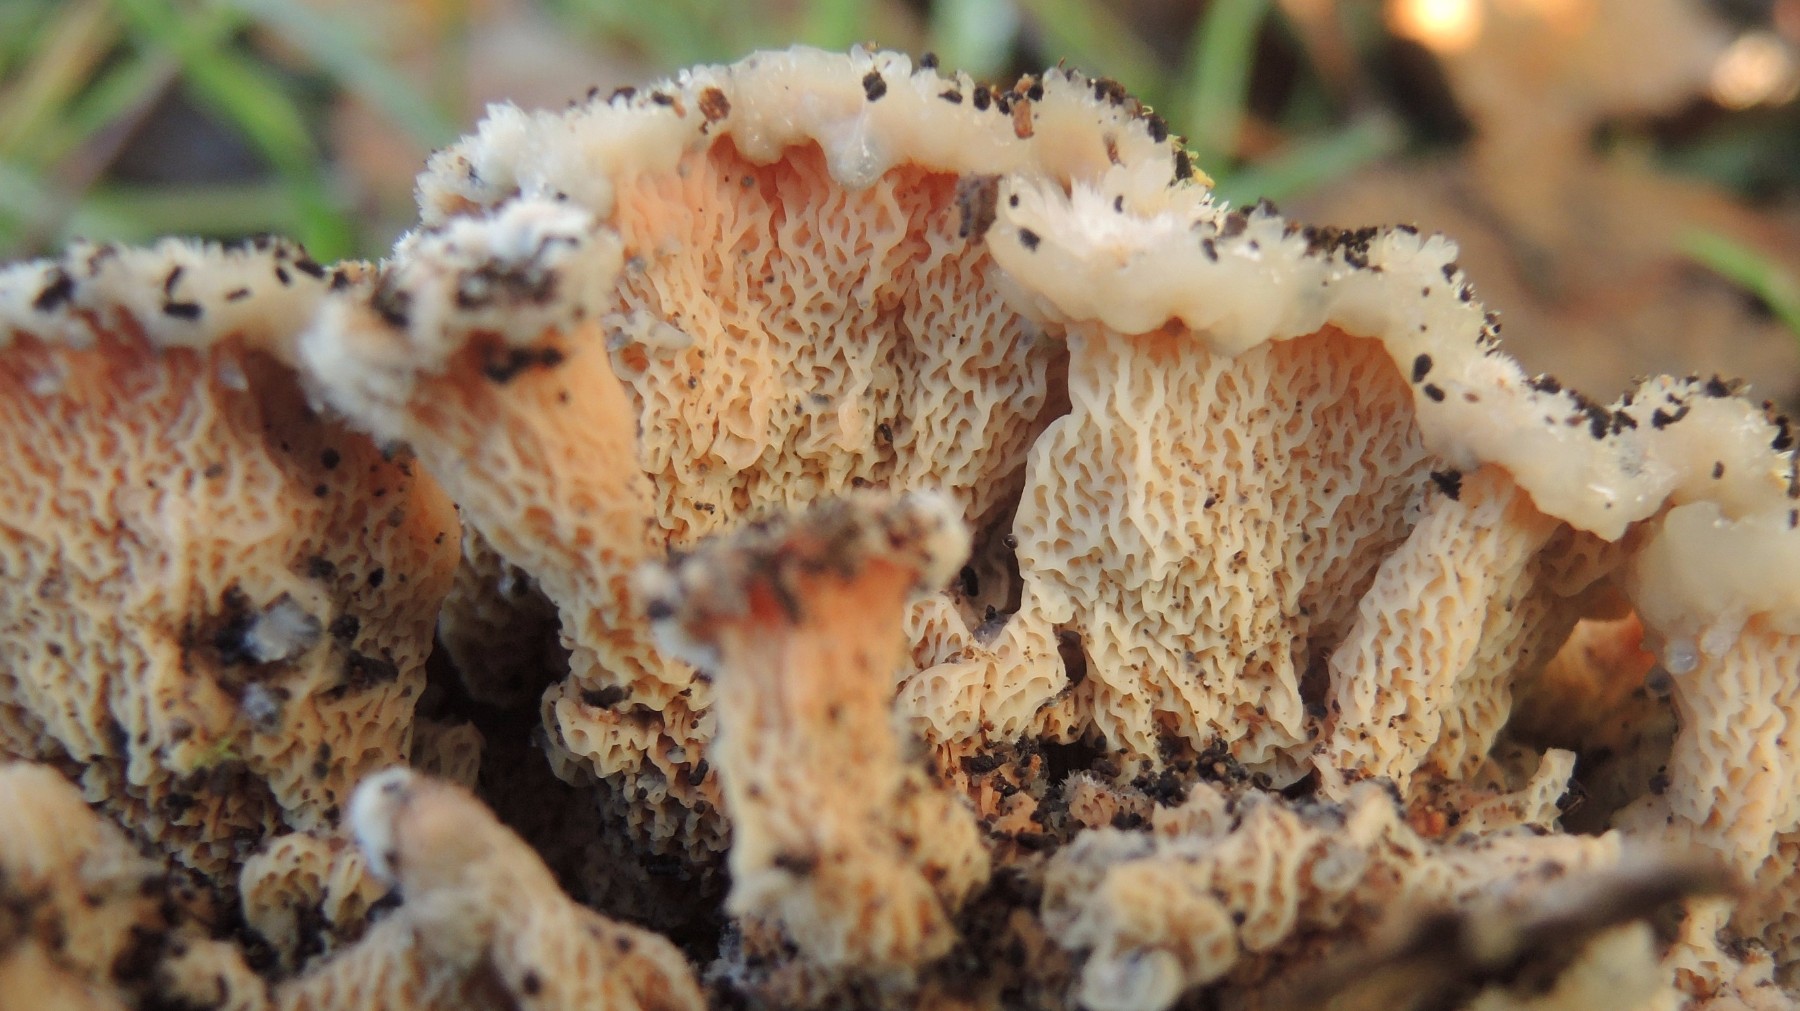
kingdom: Fungi
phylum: Basidiomycota
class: Agaricomycetes
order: Polyporales
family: Meruliaceae
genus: Phlebia
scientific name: Phlebia tremellosa
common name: bævrende åresvamp
